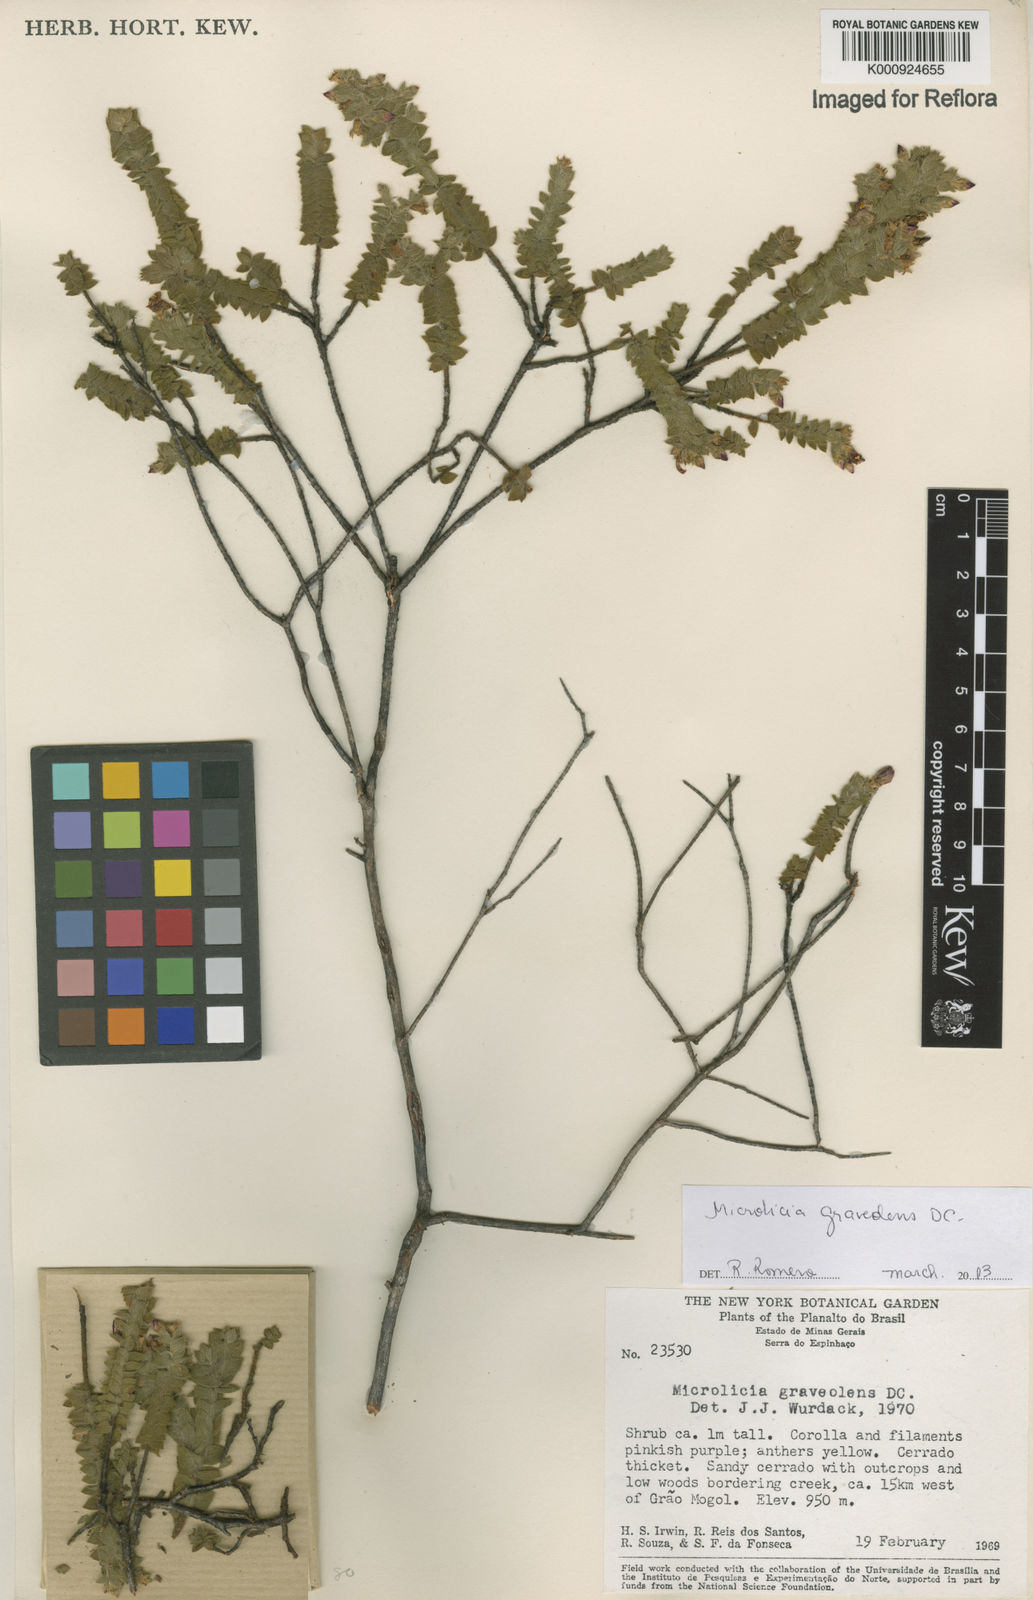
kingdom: Plantae
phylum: Tracheophyta
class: Magnoliopsida
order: Myrtales
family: Melastomataceae
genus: Microlicia
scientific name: Microlicia graveolens
